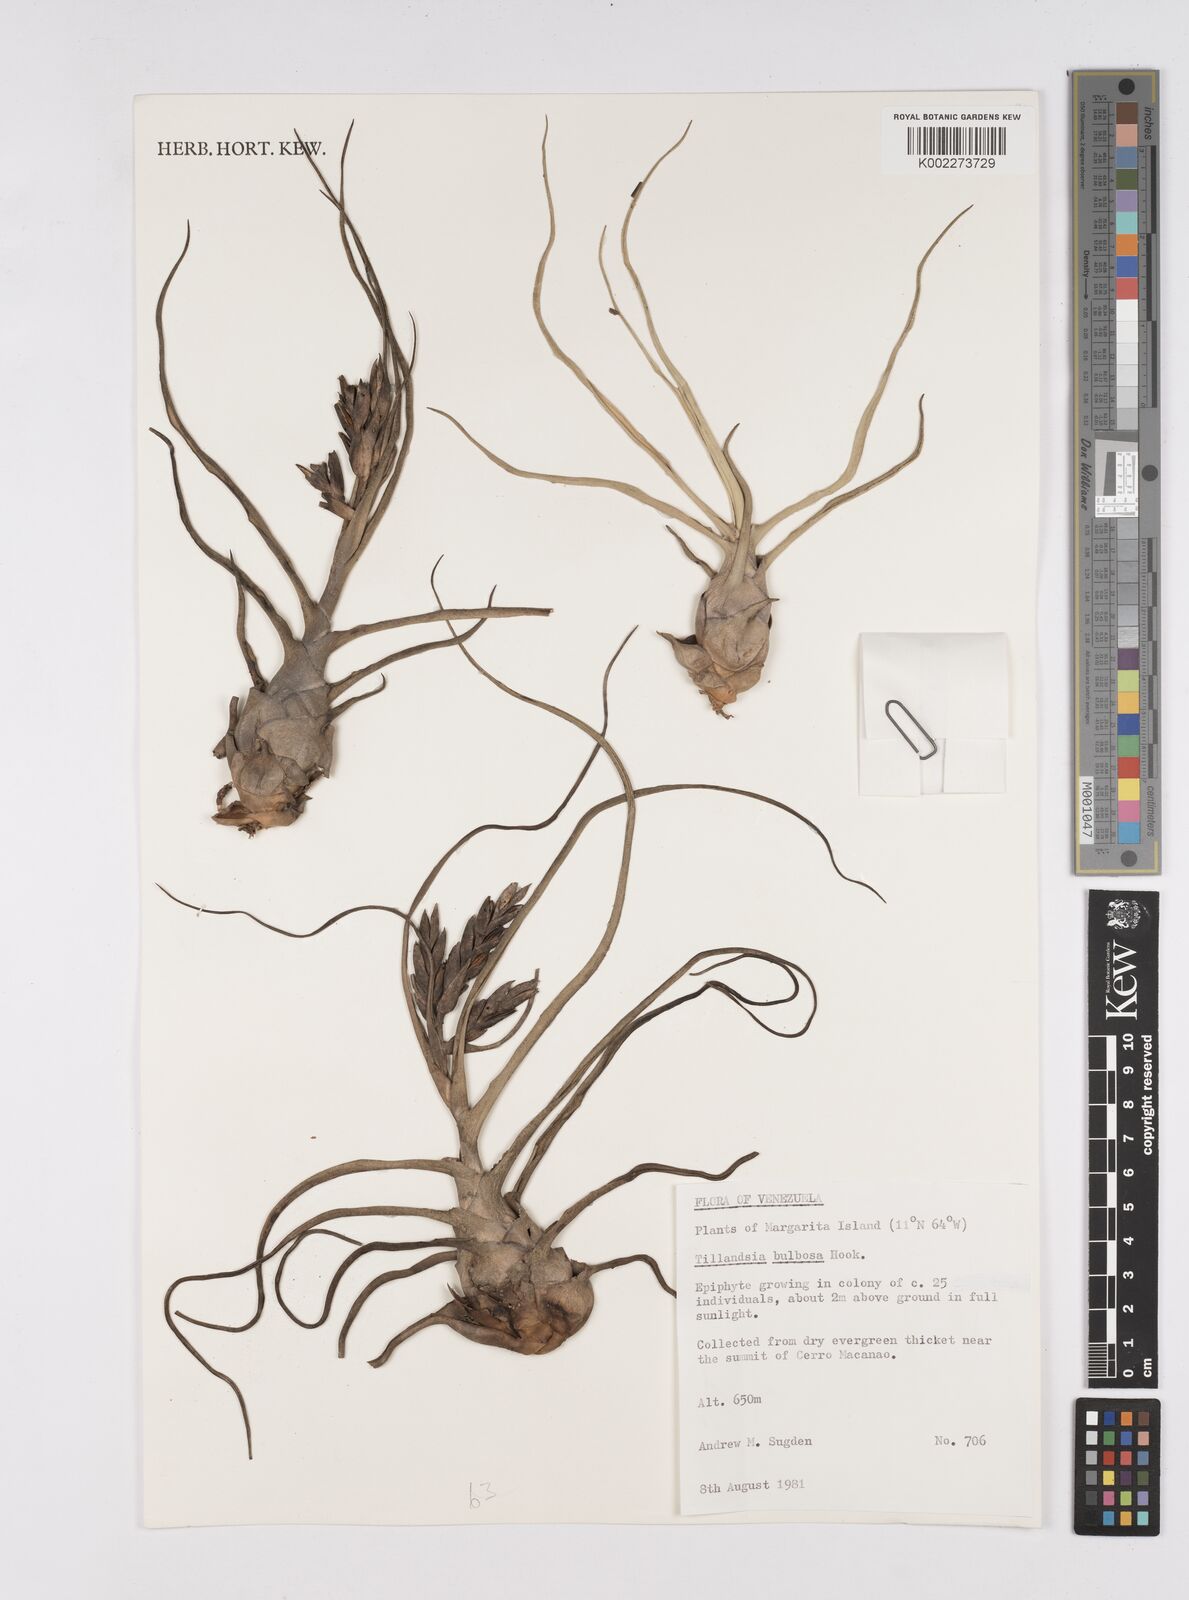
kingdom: Plantae
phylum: Tracheophyta
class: Liliopsida
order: Poales
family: Bromeliaceae
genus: Tillandsia
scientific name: Tillandsia bulbosa
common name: Bulbous airplant
